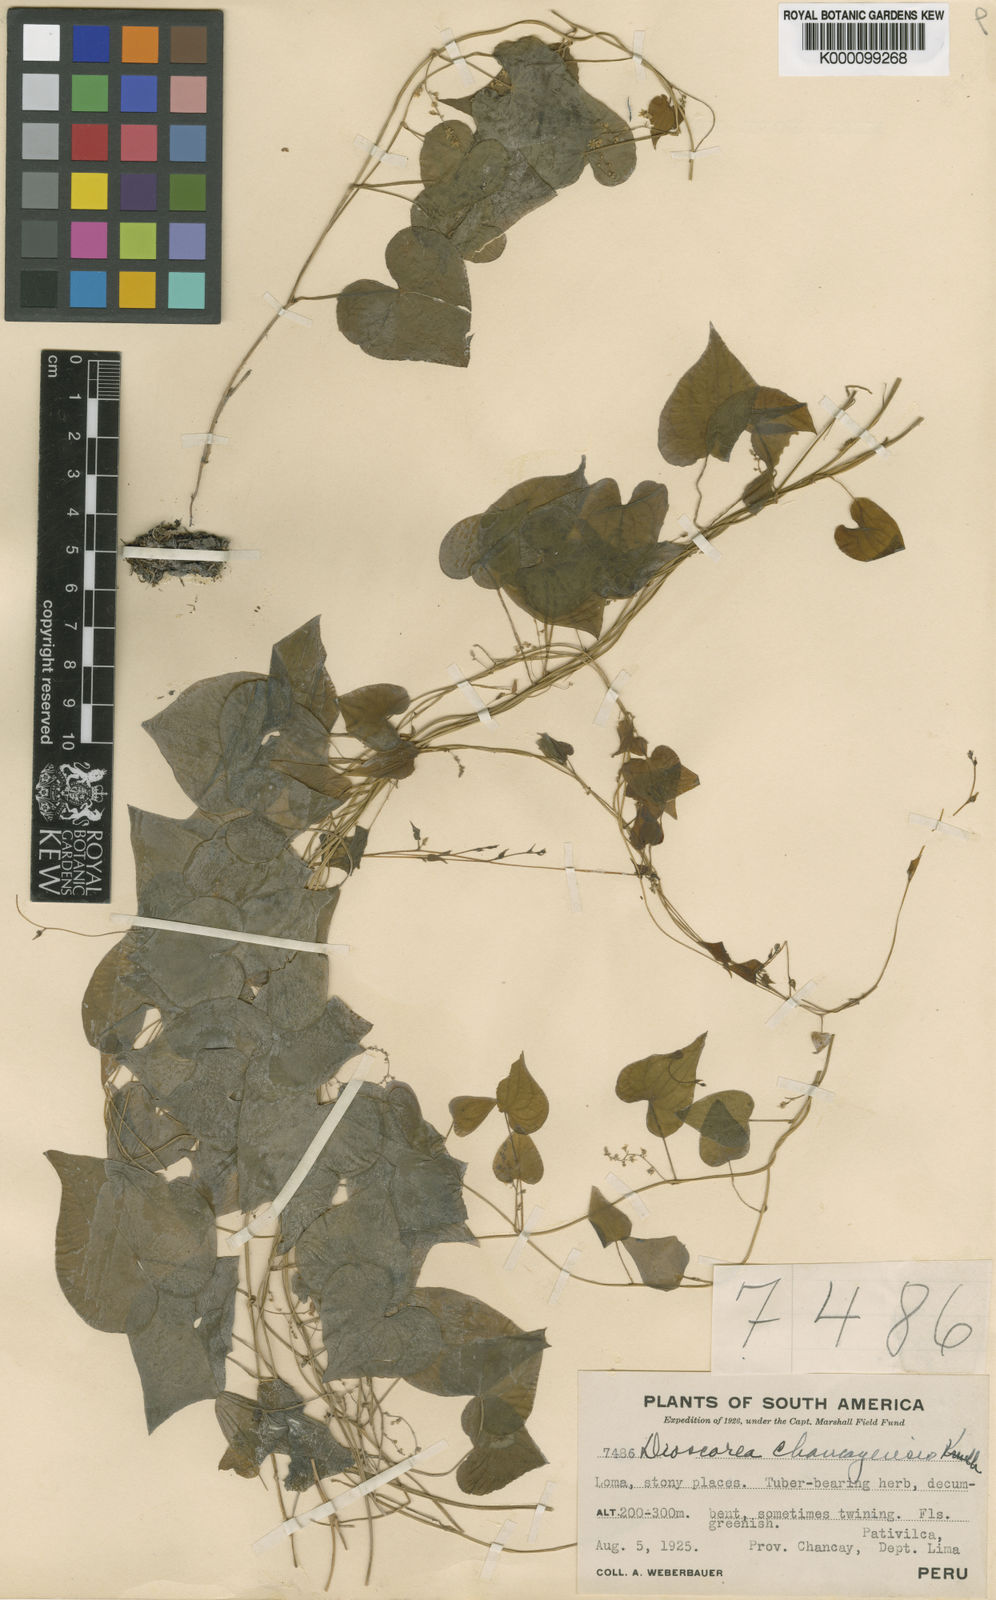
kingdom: Plantae
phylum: Tracheophyta
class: Liliopsida
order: Dioscoreales
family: Dioscoreaceae
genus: Dioscorea
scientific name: Dioscorea chancayensis
